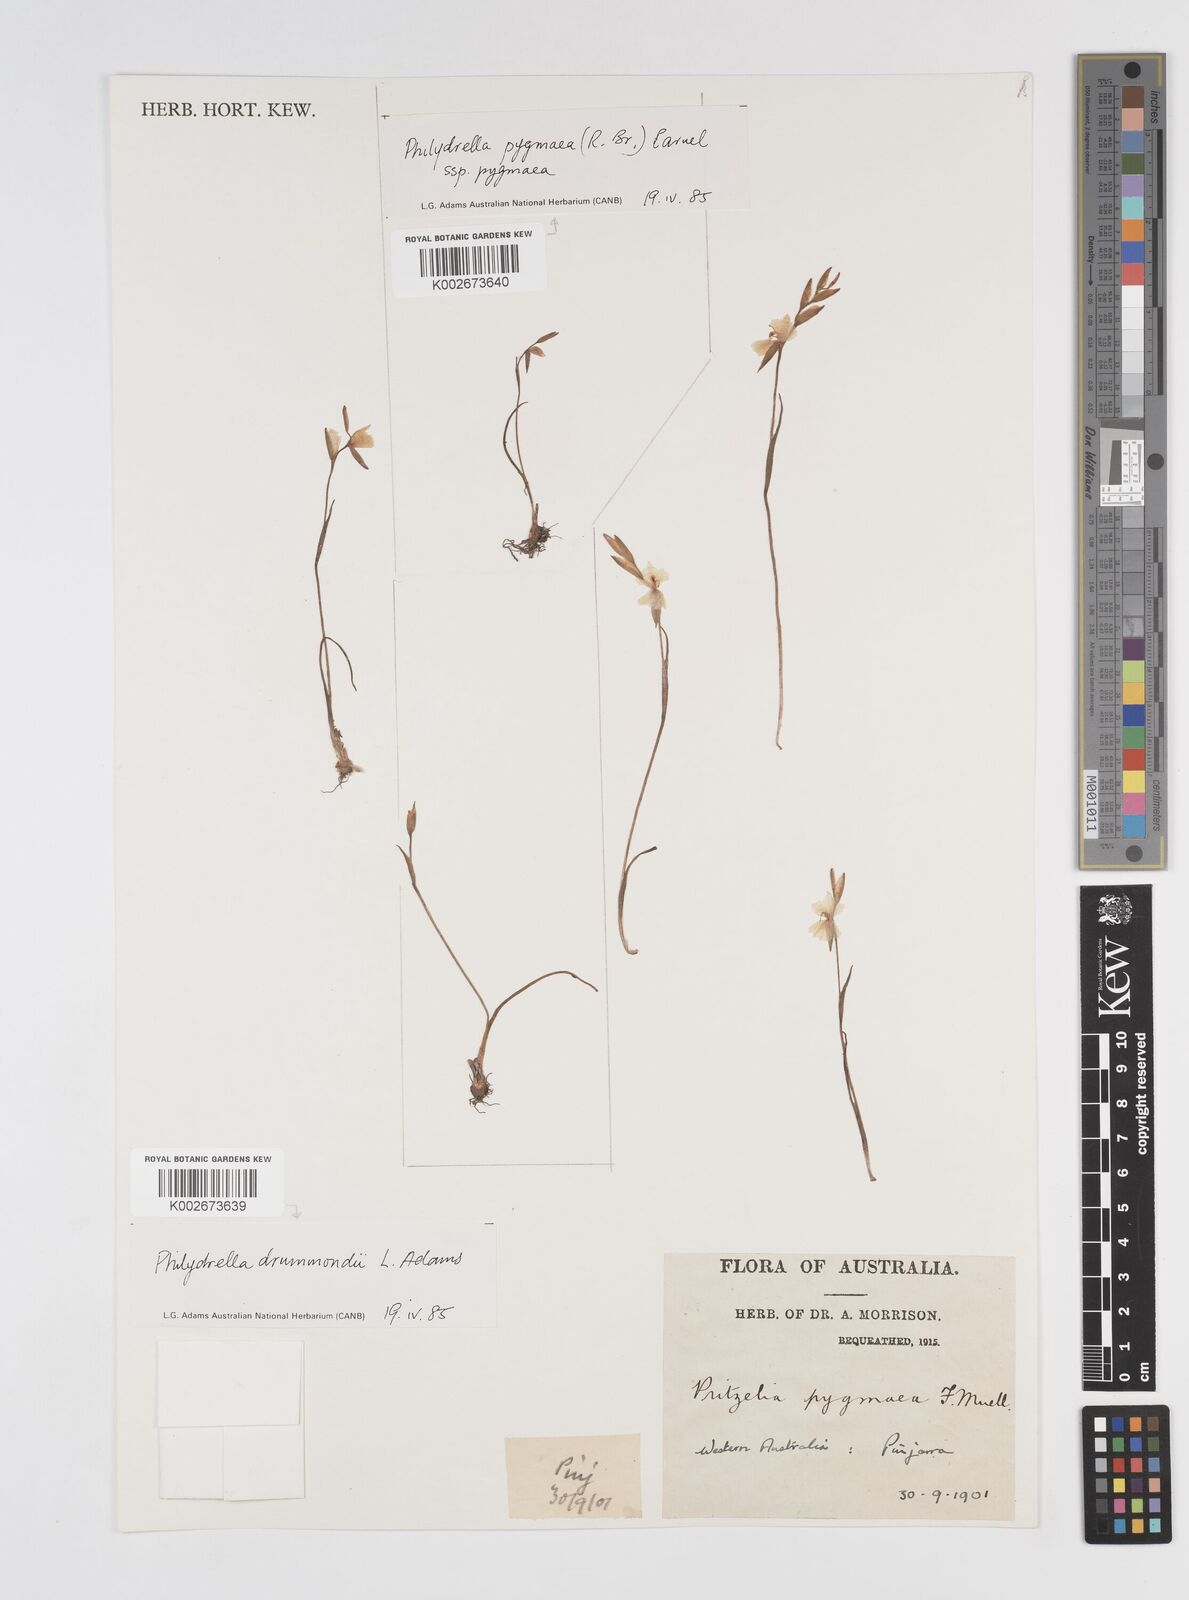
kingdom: Plantae
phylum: Tracheophyta
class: Liliopsida
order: Commelinales
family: Philydraceae
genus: Philydrella
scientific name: Philydrella drummondii
